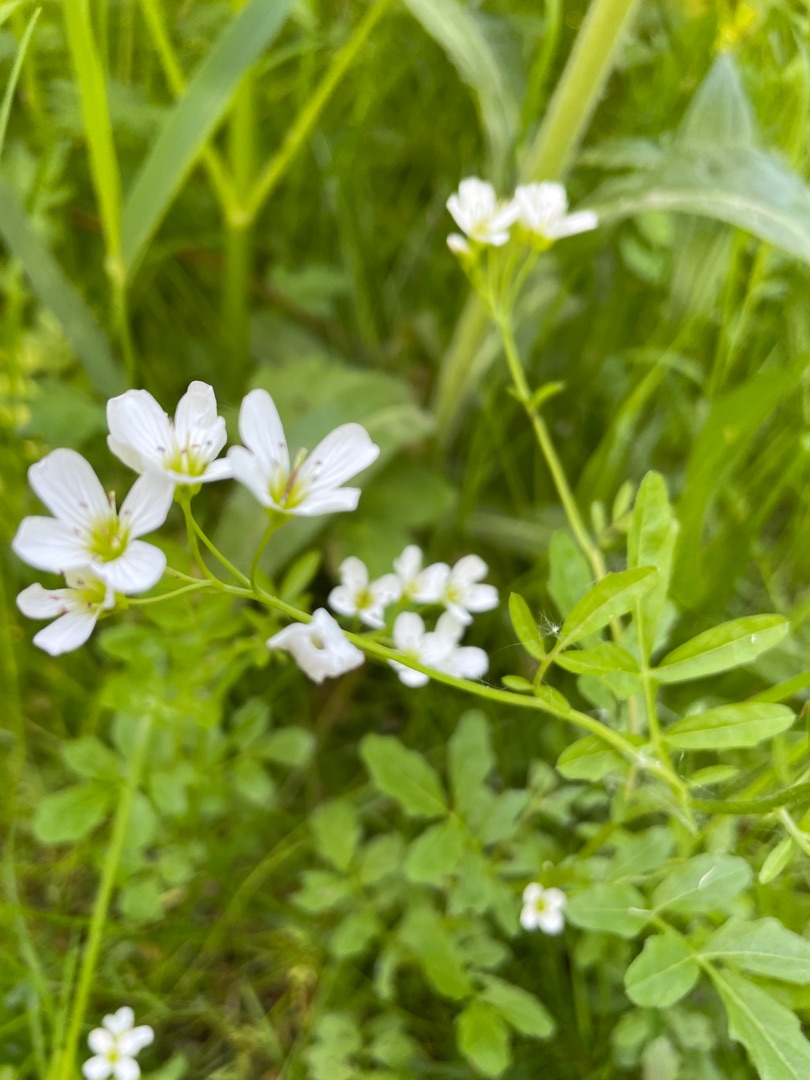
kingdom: Plantae
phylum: Tracheophyta
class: Magnoliopsida
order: Brassicales
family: Brassicaceae
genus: Cardamine
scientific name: Cardamine amara
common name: Vandkarse
